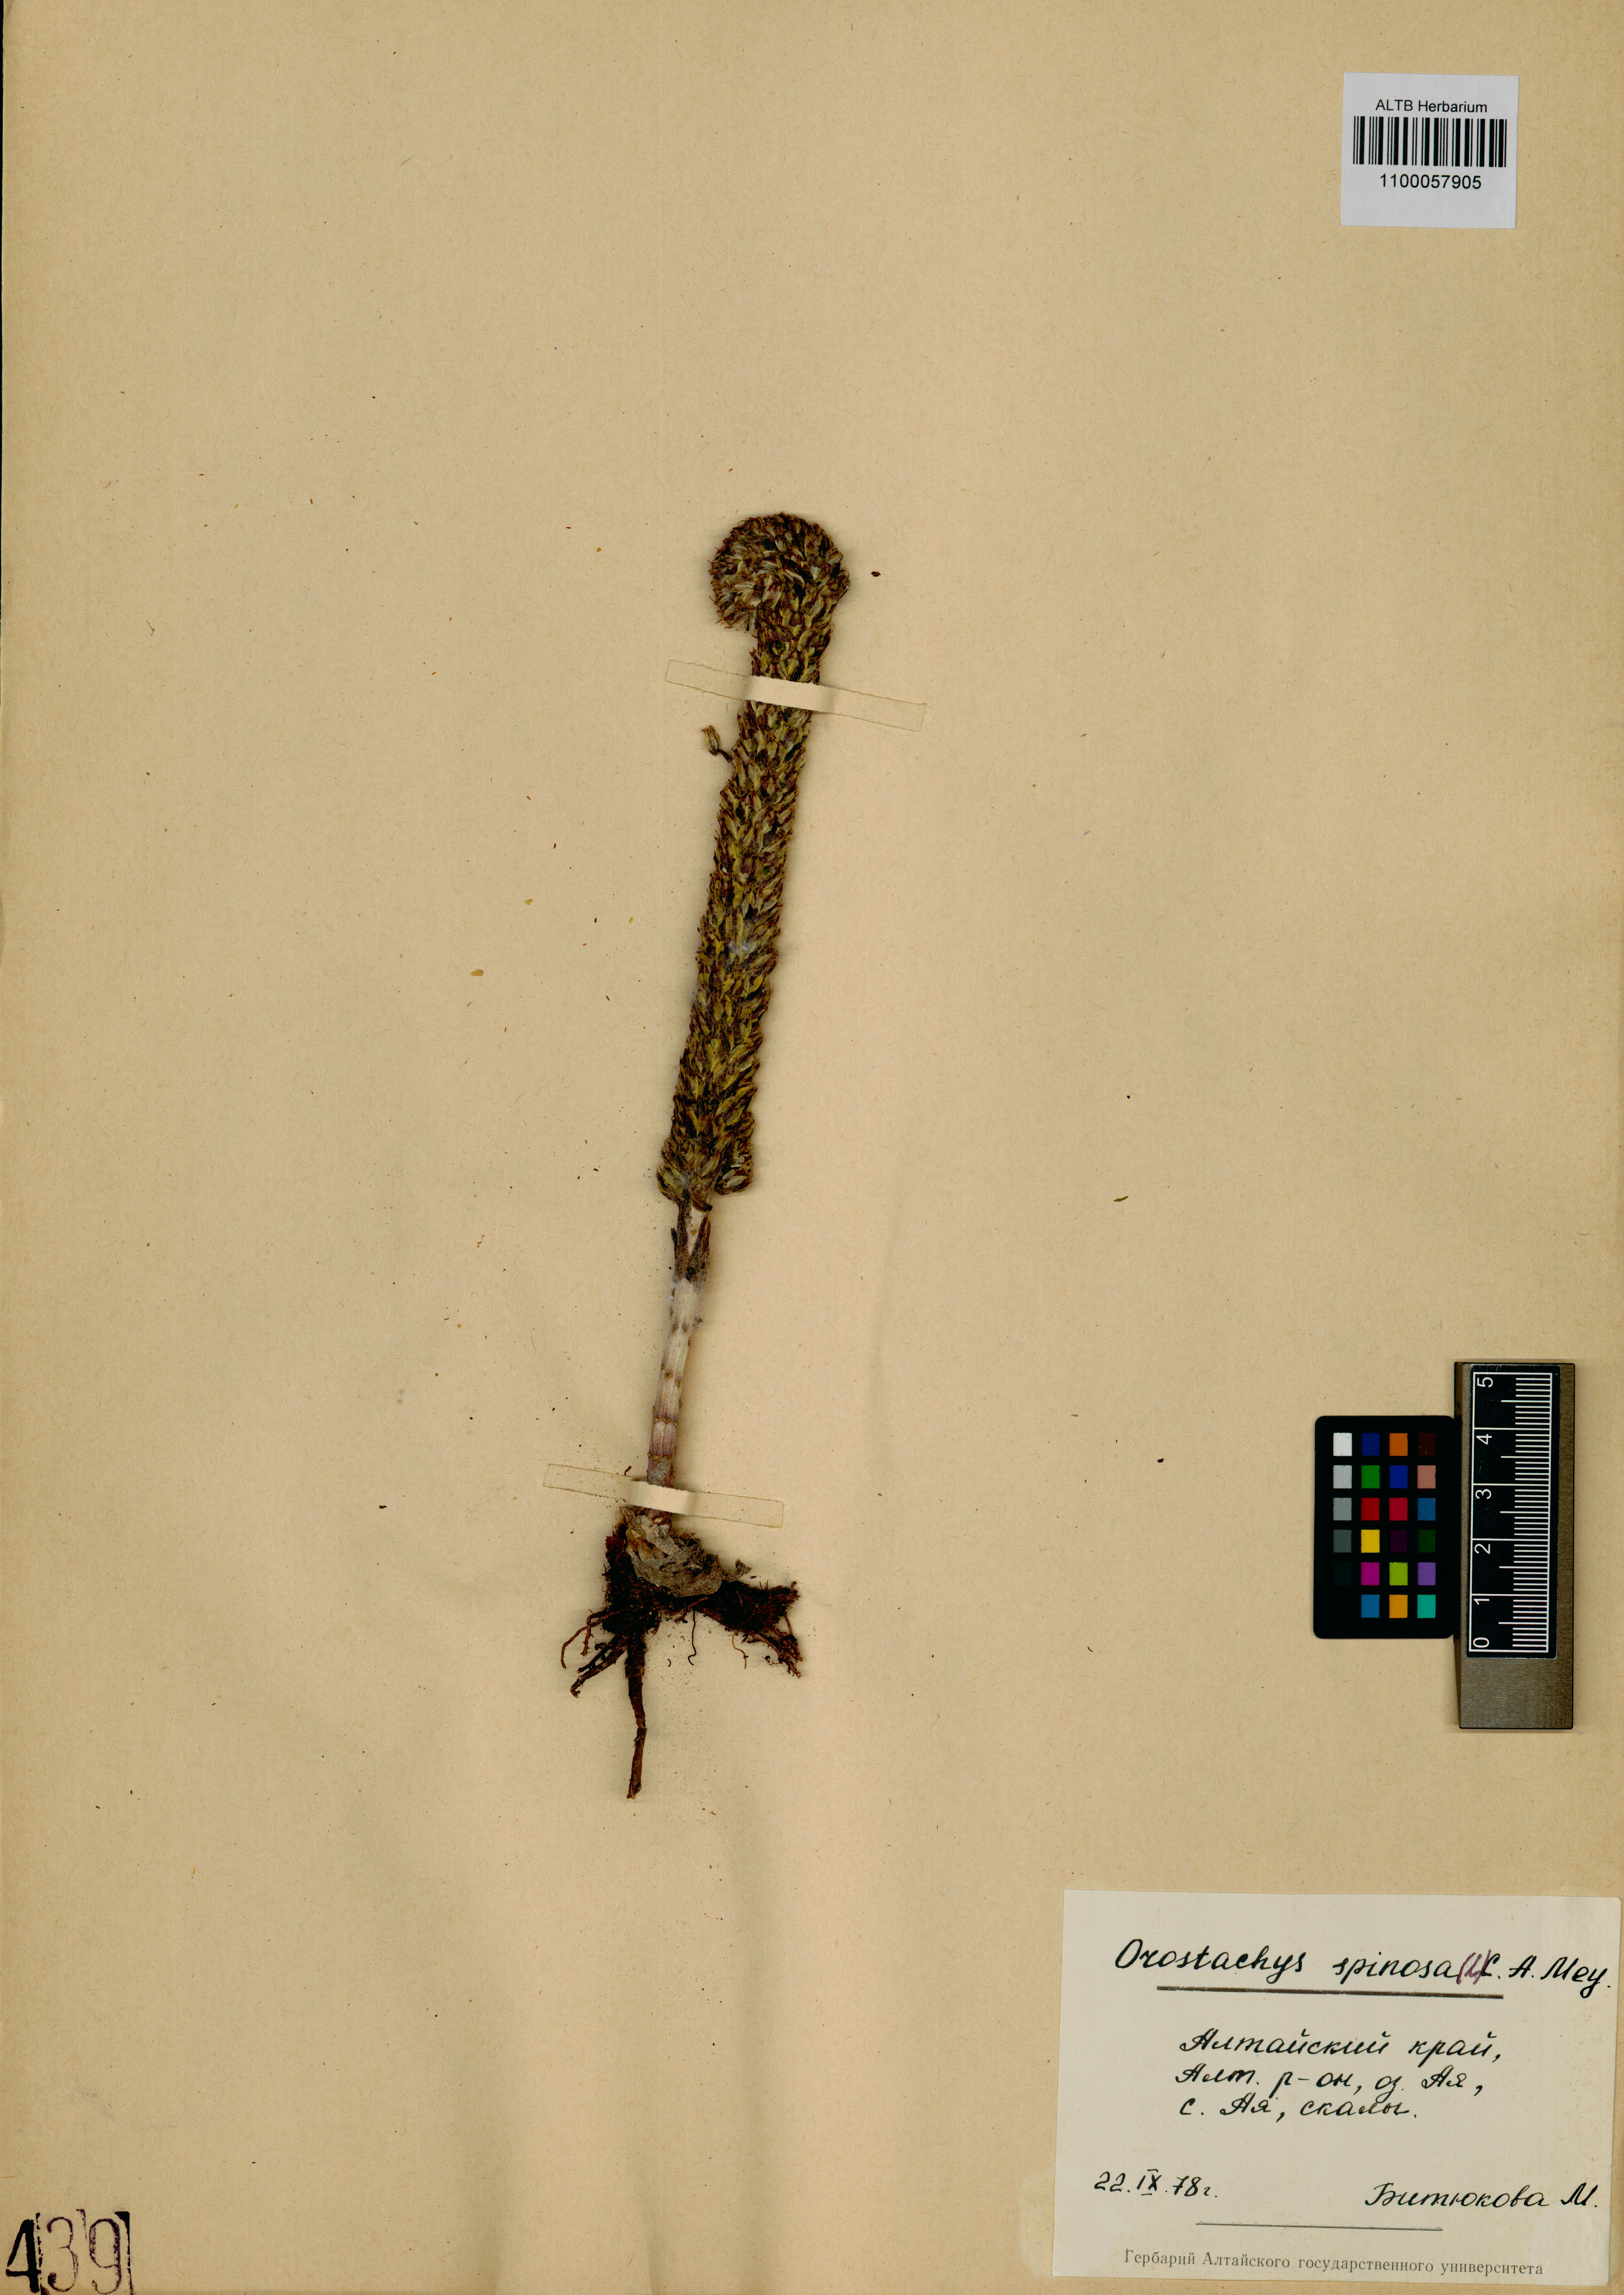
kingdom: Plantae
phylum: Tracheophyta
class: Magnoliopsida
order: Saxifragales
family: Crassulaceae
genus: Orostachys
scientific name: Orostachys spinosa
